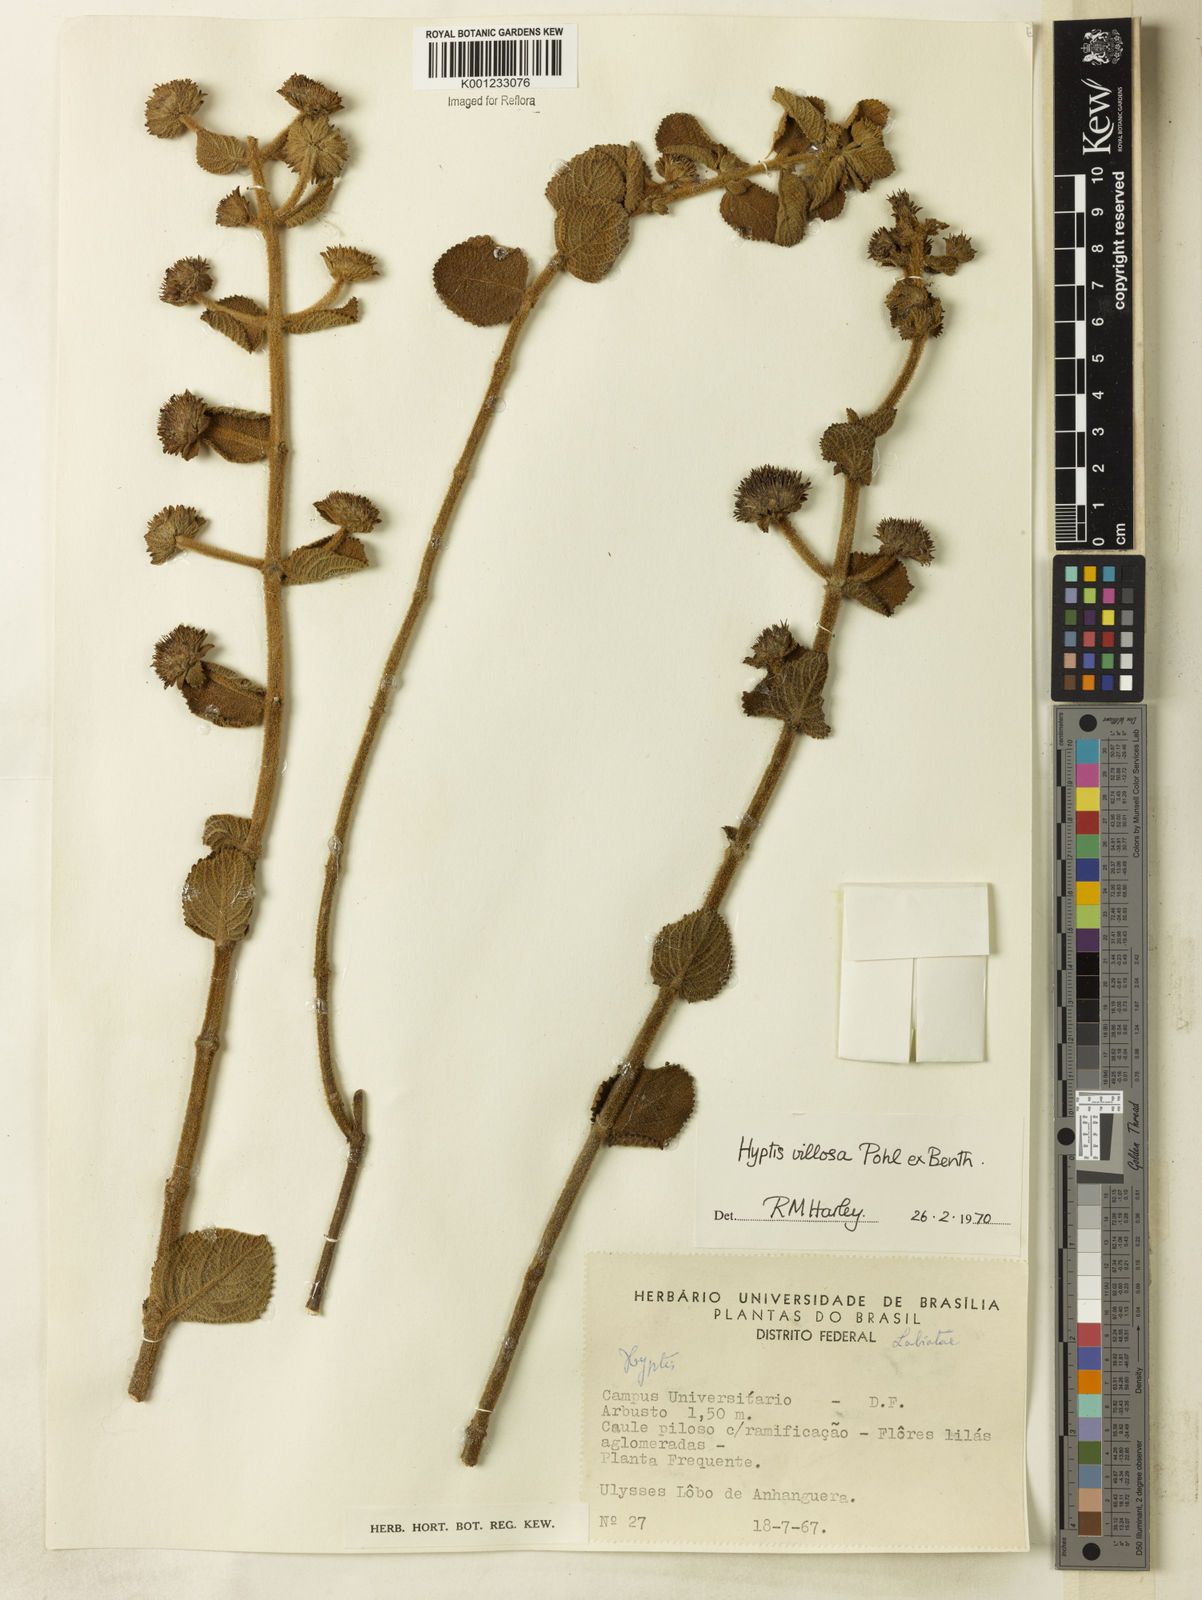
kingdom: Plantae
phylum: Tracheophyta
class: Magnoliopsida
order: Lamiales
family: Lamiaceae
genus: Hyptis
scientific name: Hyptis villosa
